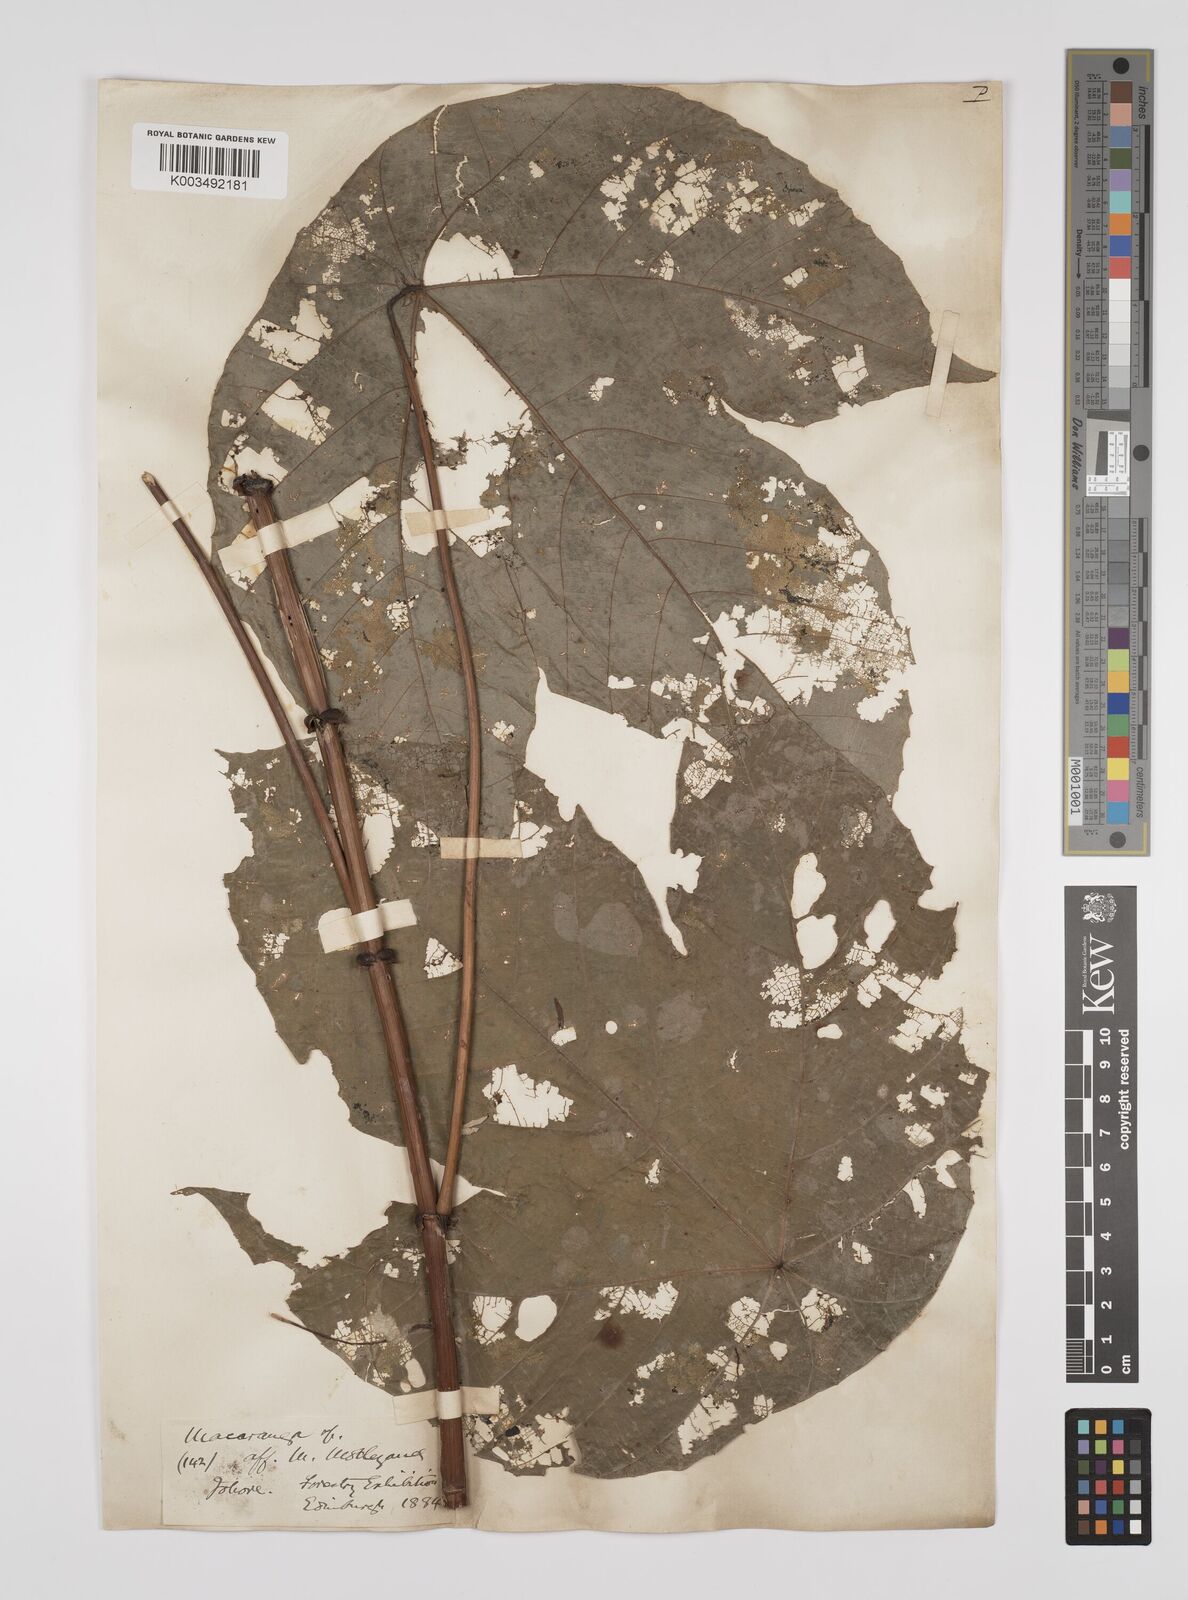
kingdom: Plantae
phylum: Tracheophyta
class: Magnoliopsida
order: Malpighiales
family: Euphorbiaceae
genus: Macaranga
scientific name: Macaranga triloba
